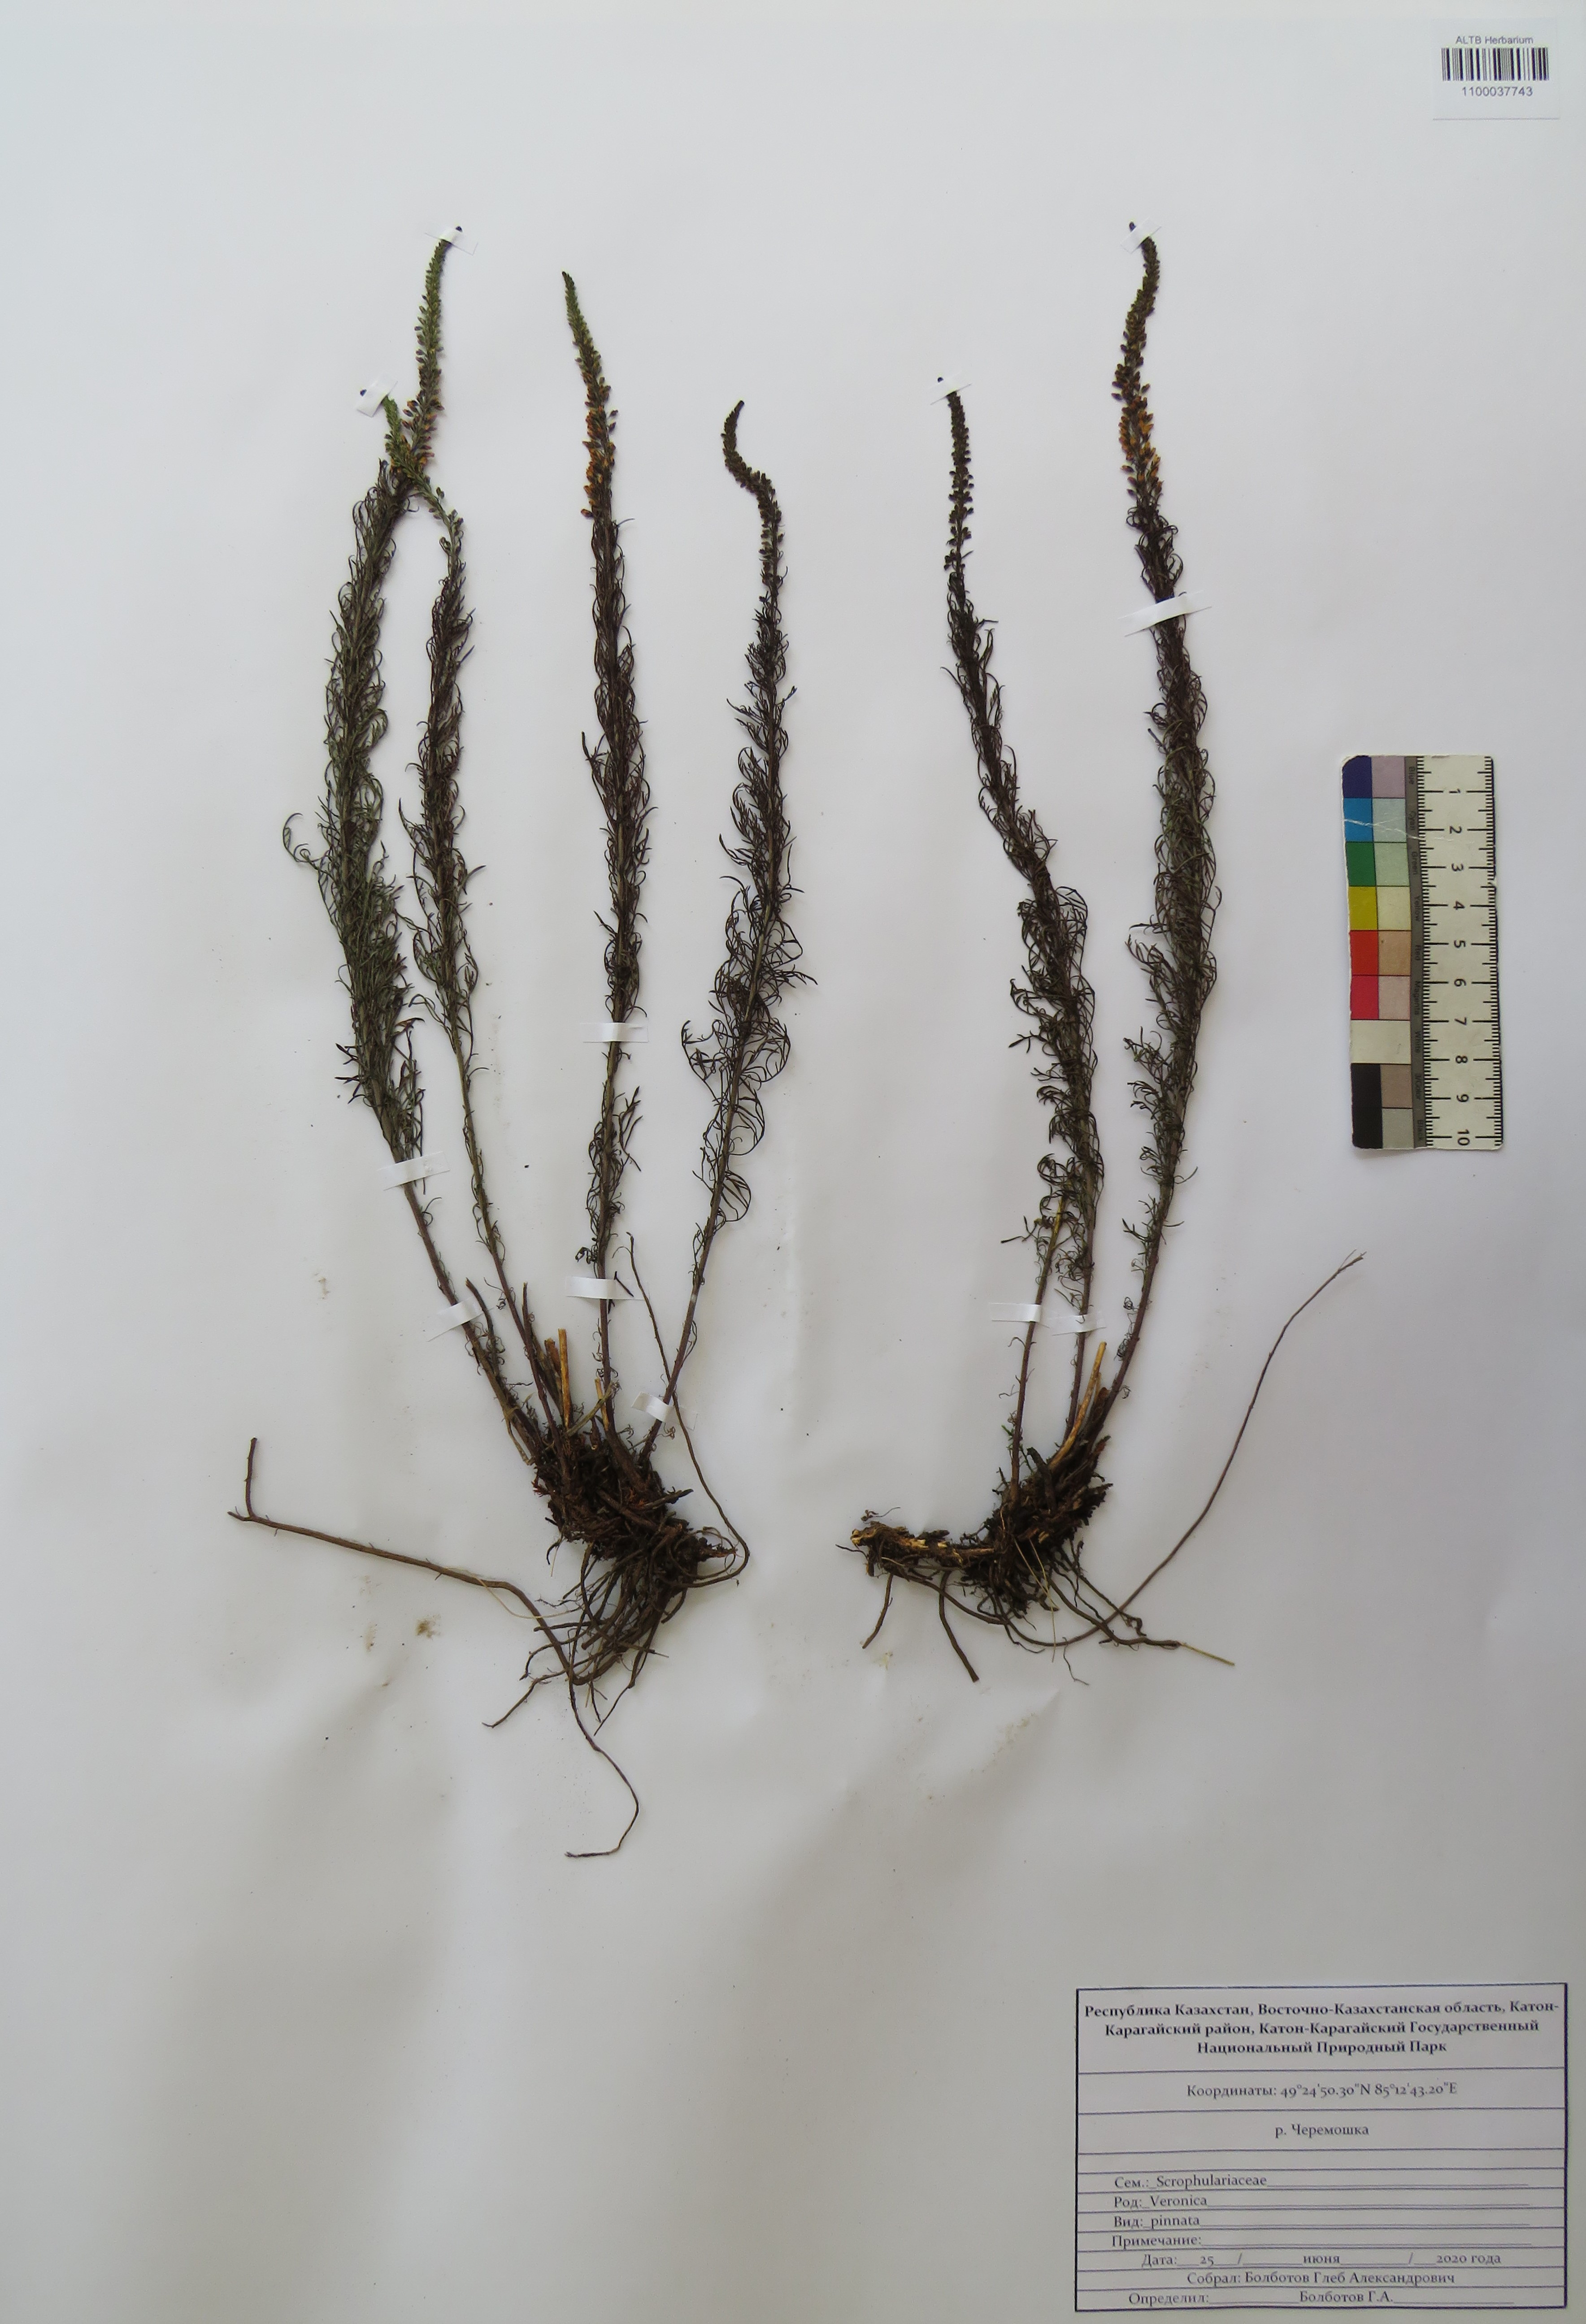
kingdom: Plantae
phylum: Tracheophyta
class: Magnoliopsida
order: Lamiales
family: Plantaginaceae
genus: Veronica
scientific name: Veronica pinnata
